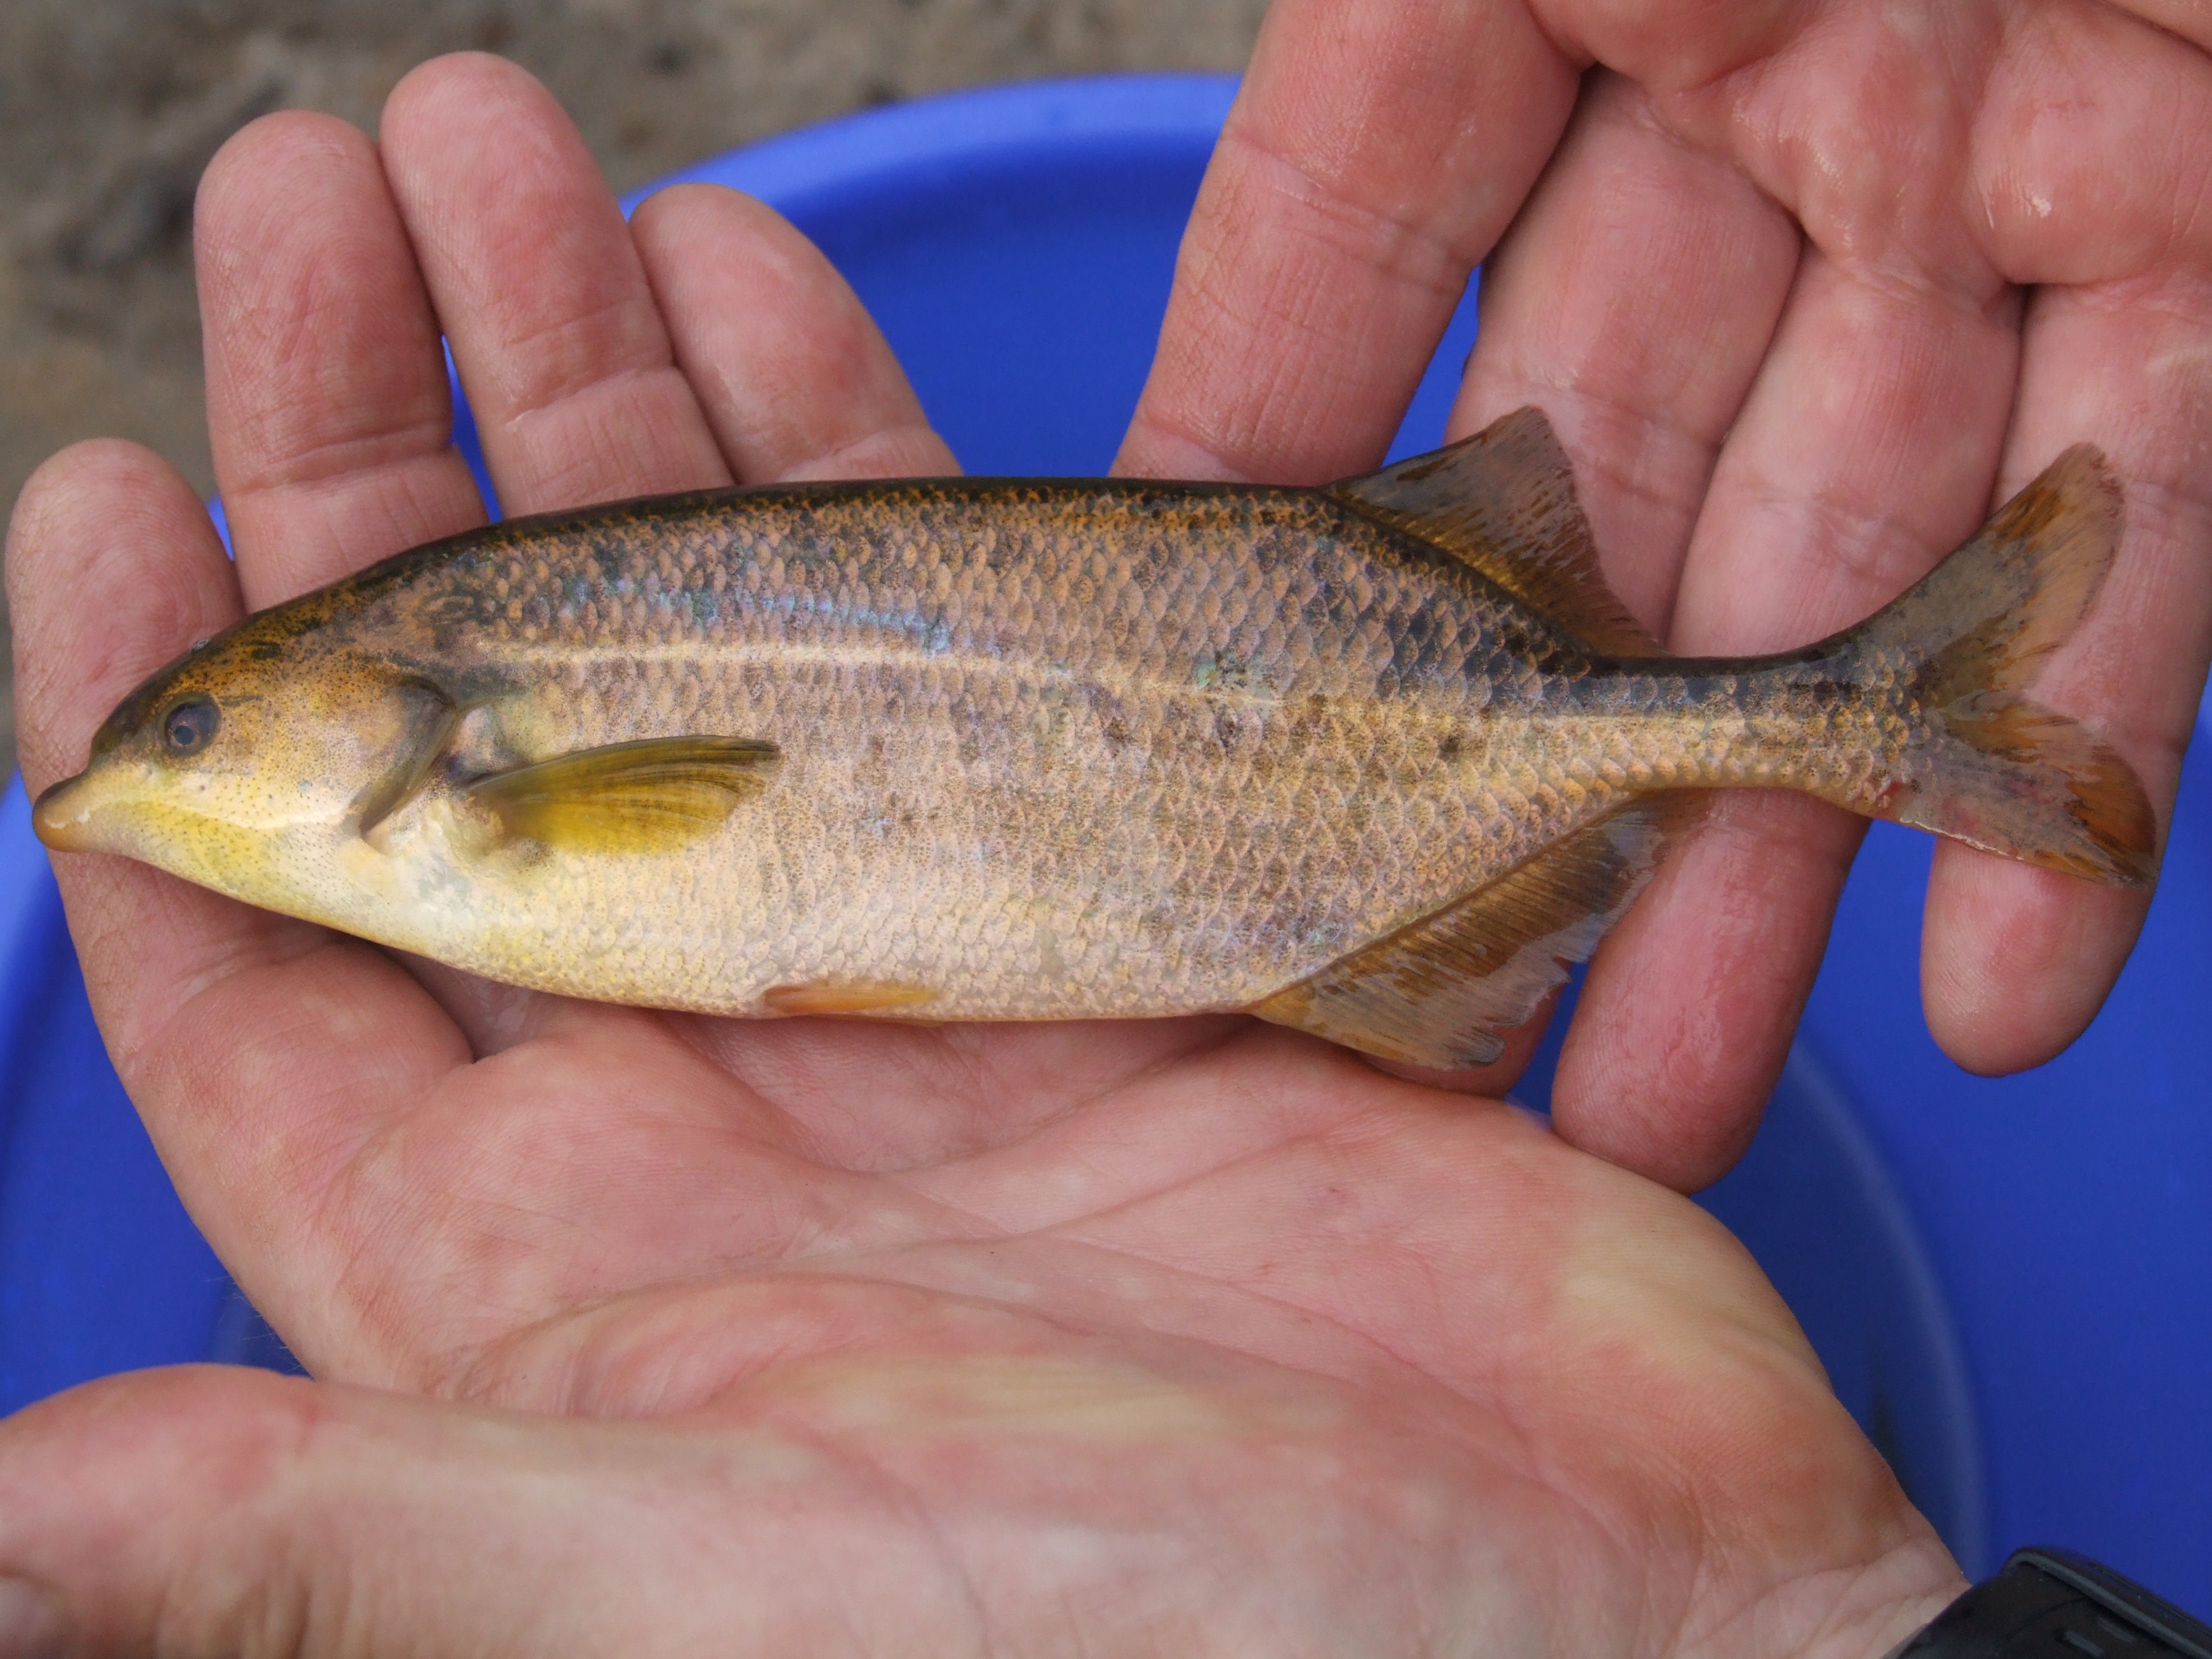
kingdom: Animalia
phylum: Chordata
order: Osteoglossiformes
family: Mormyridae
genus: Marcusenius
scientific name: Marcusenius altisambesi
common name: Bulldog
